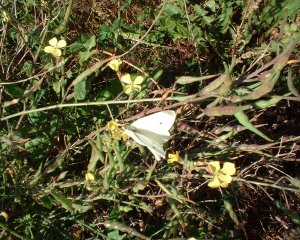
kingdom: Animalia
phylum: Arthropoda
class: Insecta
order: Lepidoptera
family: Pieridae
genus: Pieris
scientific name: Pieris rapae
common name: Cabbage White
